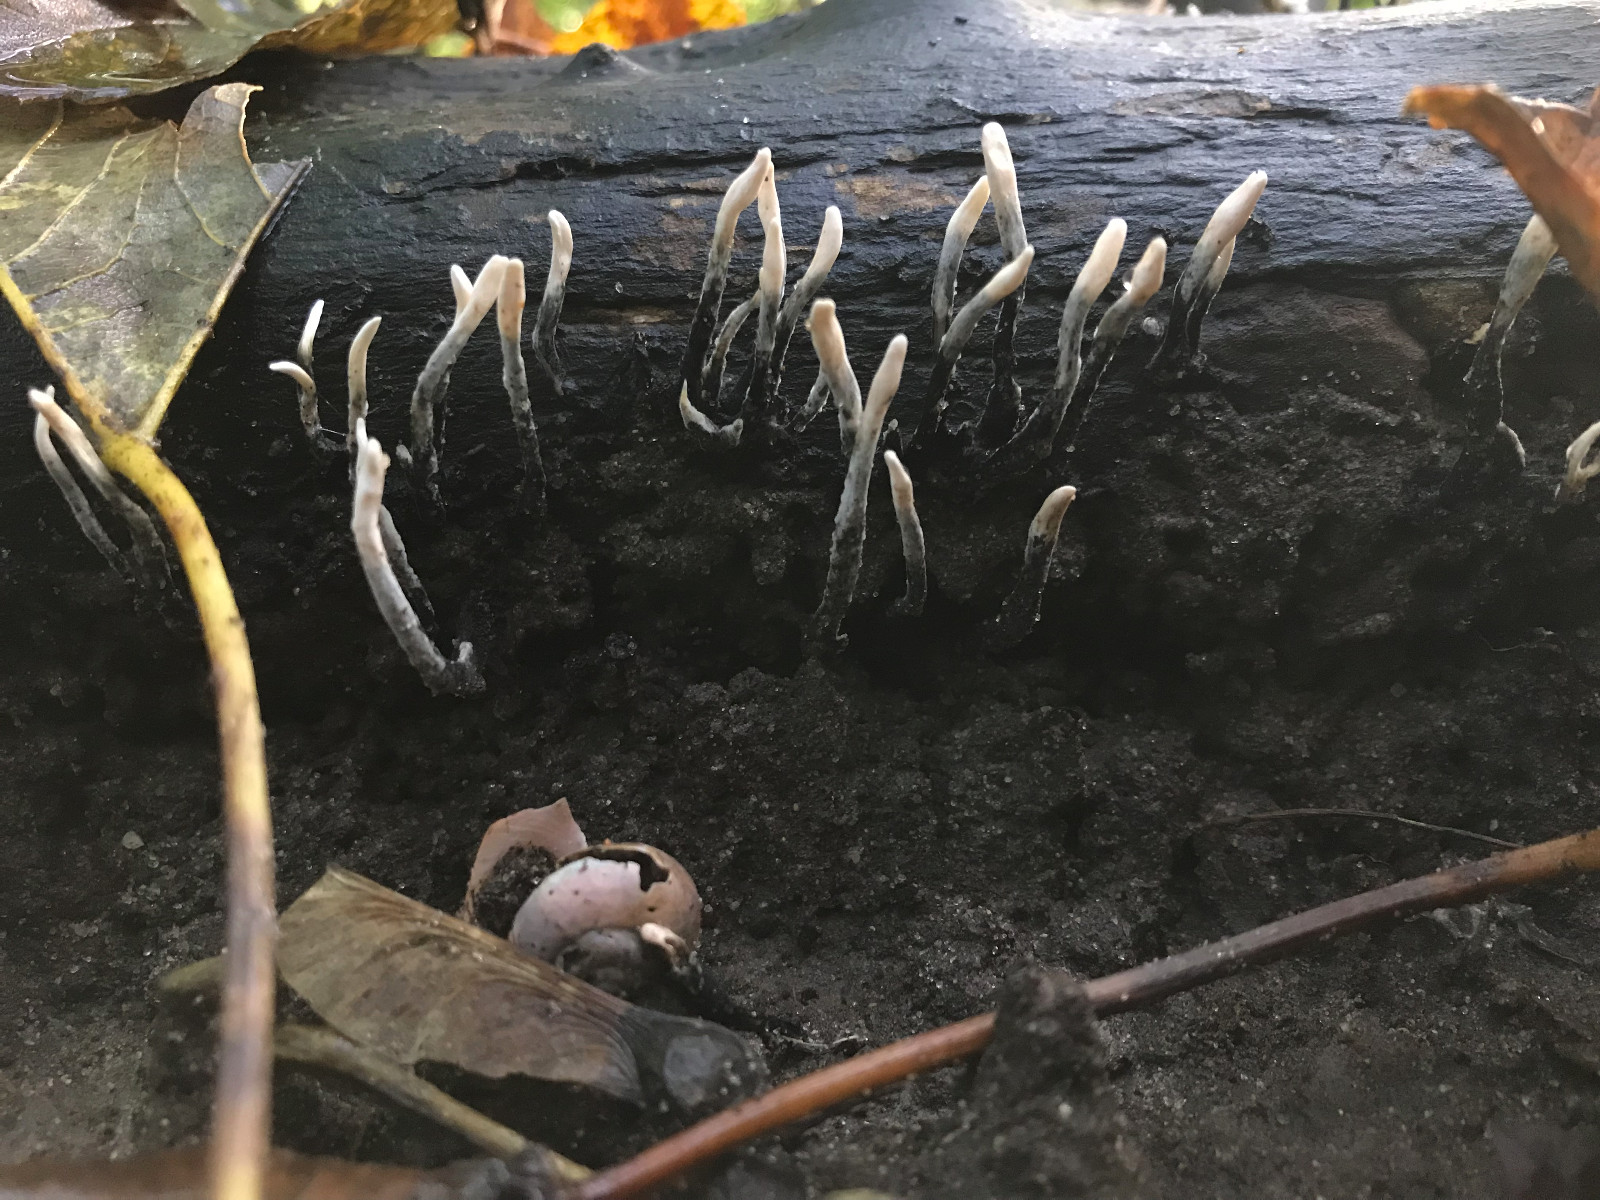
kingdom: Fungi
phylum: Ascomycota
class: Sordariomycetes
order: Xylariales
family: Xylariaceae
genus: Xylaria
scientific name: Xylaria hypoxylon
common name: grenet stødsvamp
